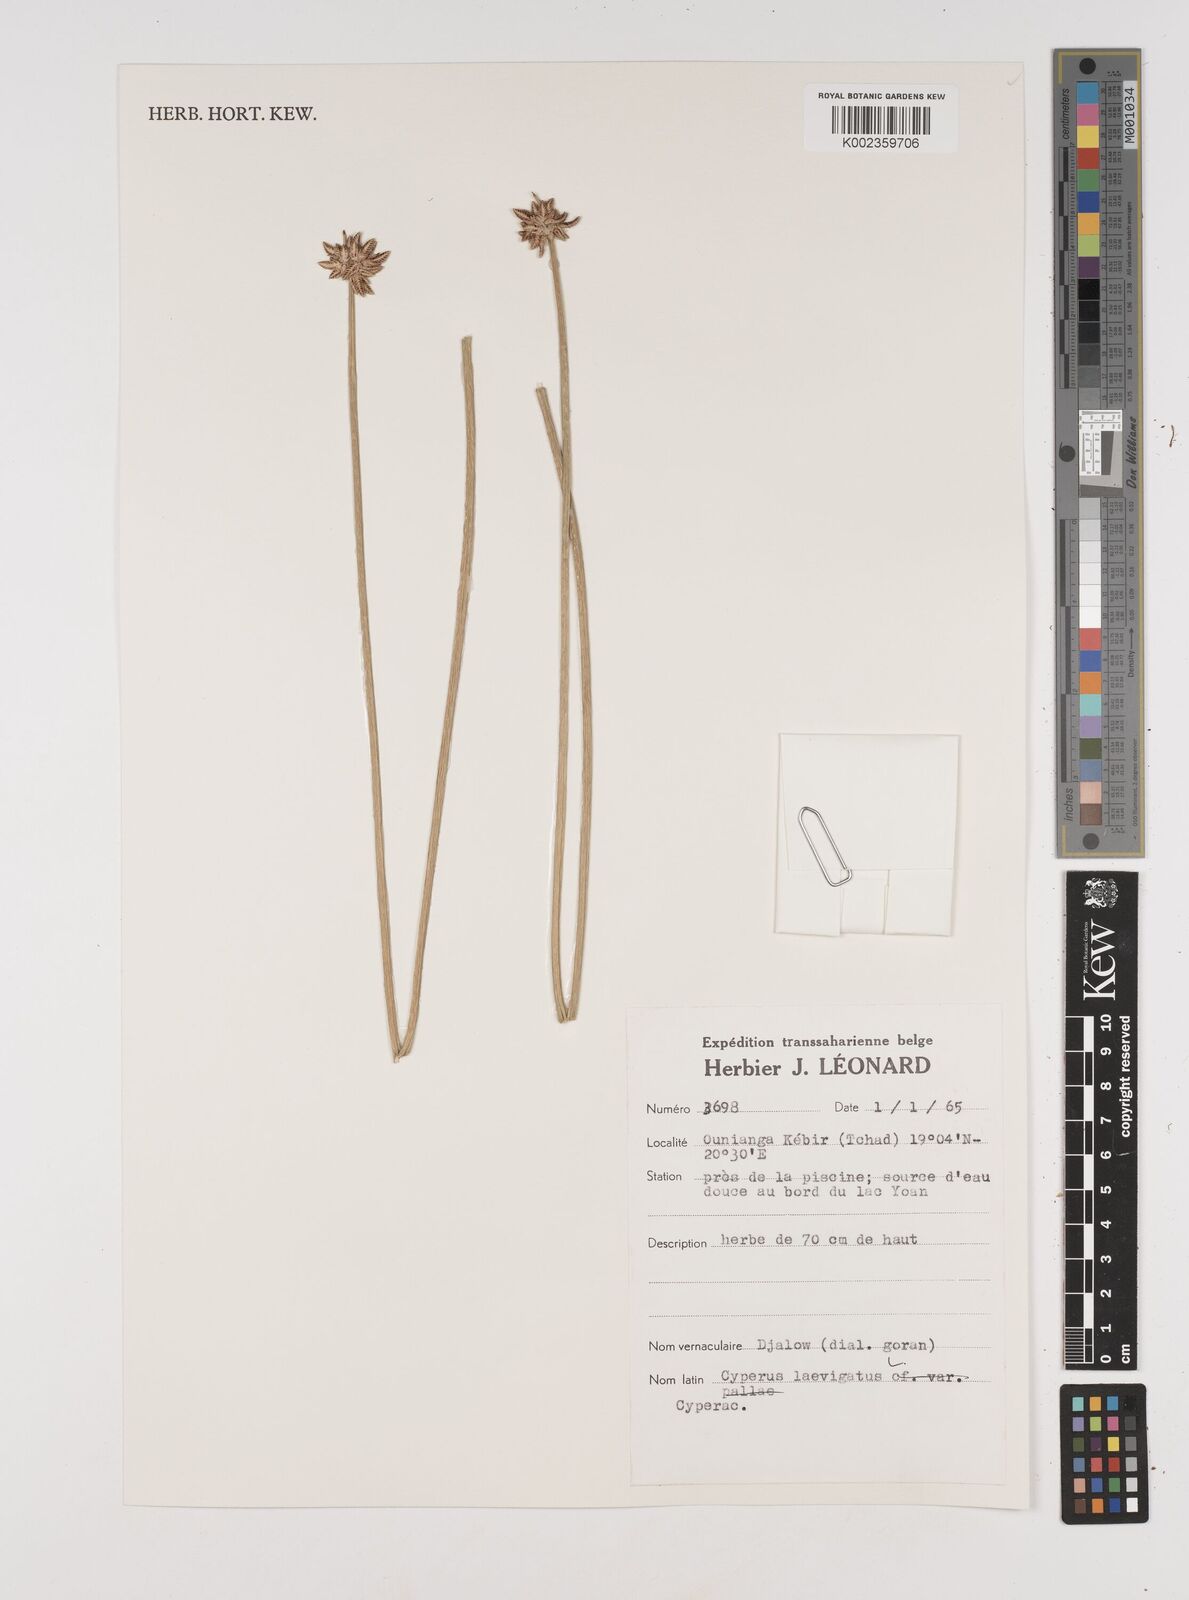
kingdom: Plantae
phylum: Tracheophyta
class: Liliopsida
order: Poales
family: Cyperaceae
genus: Cyperus
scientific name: Cyperus laevigatus
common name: Smooth flat sedge
